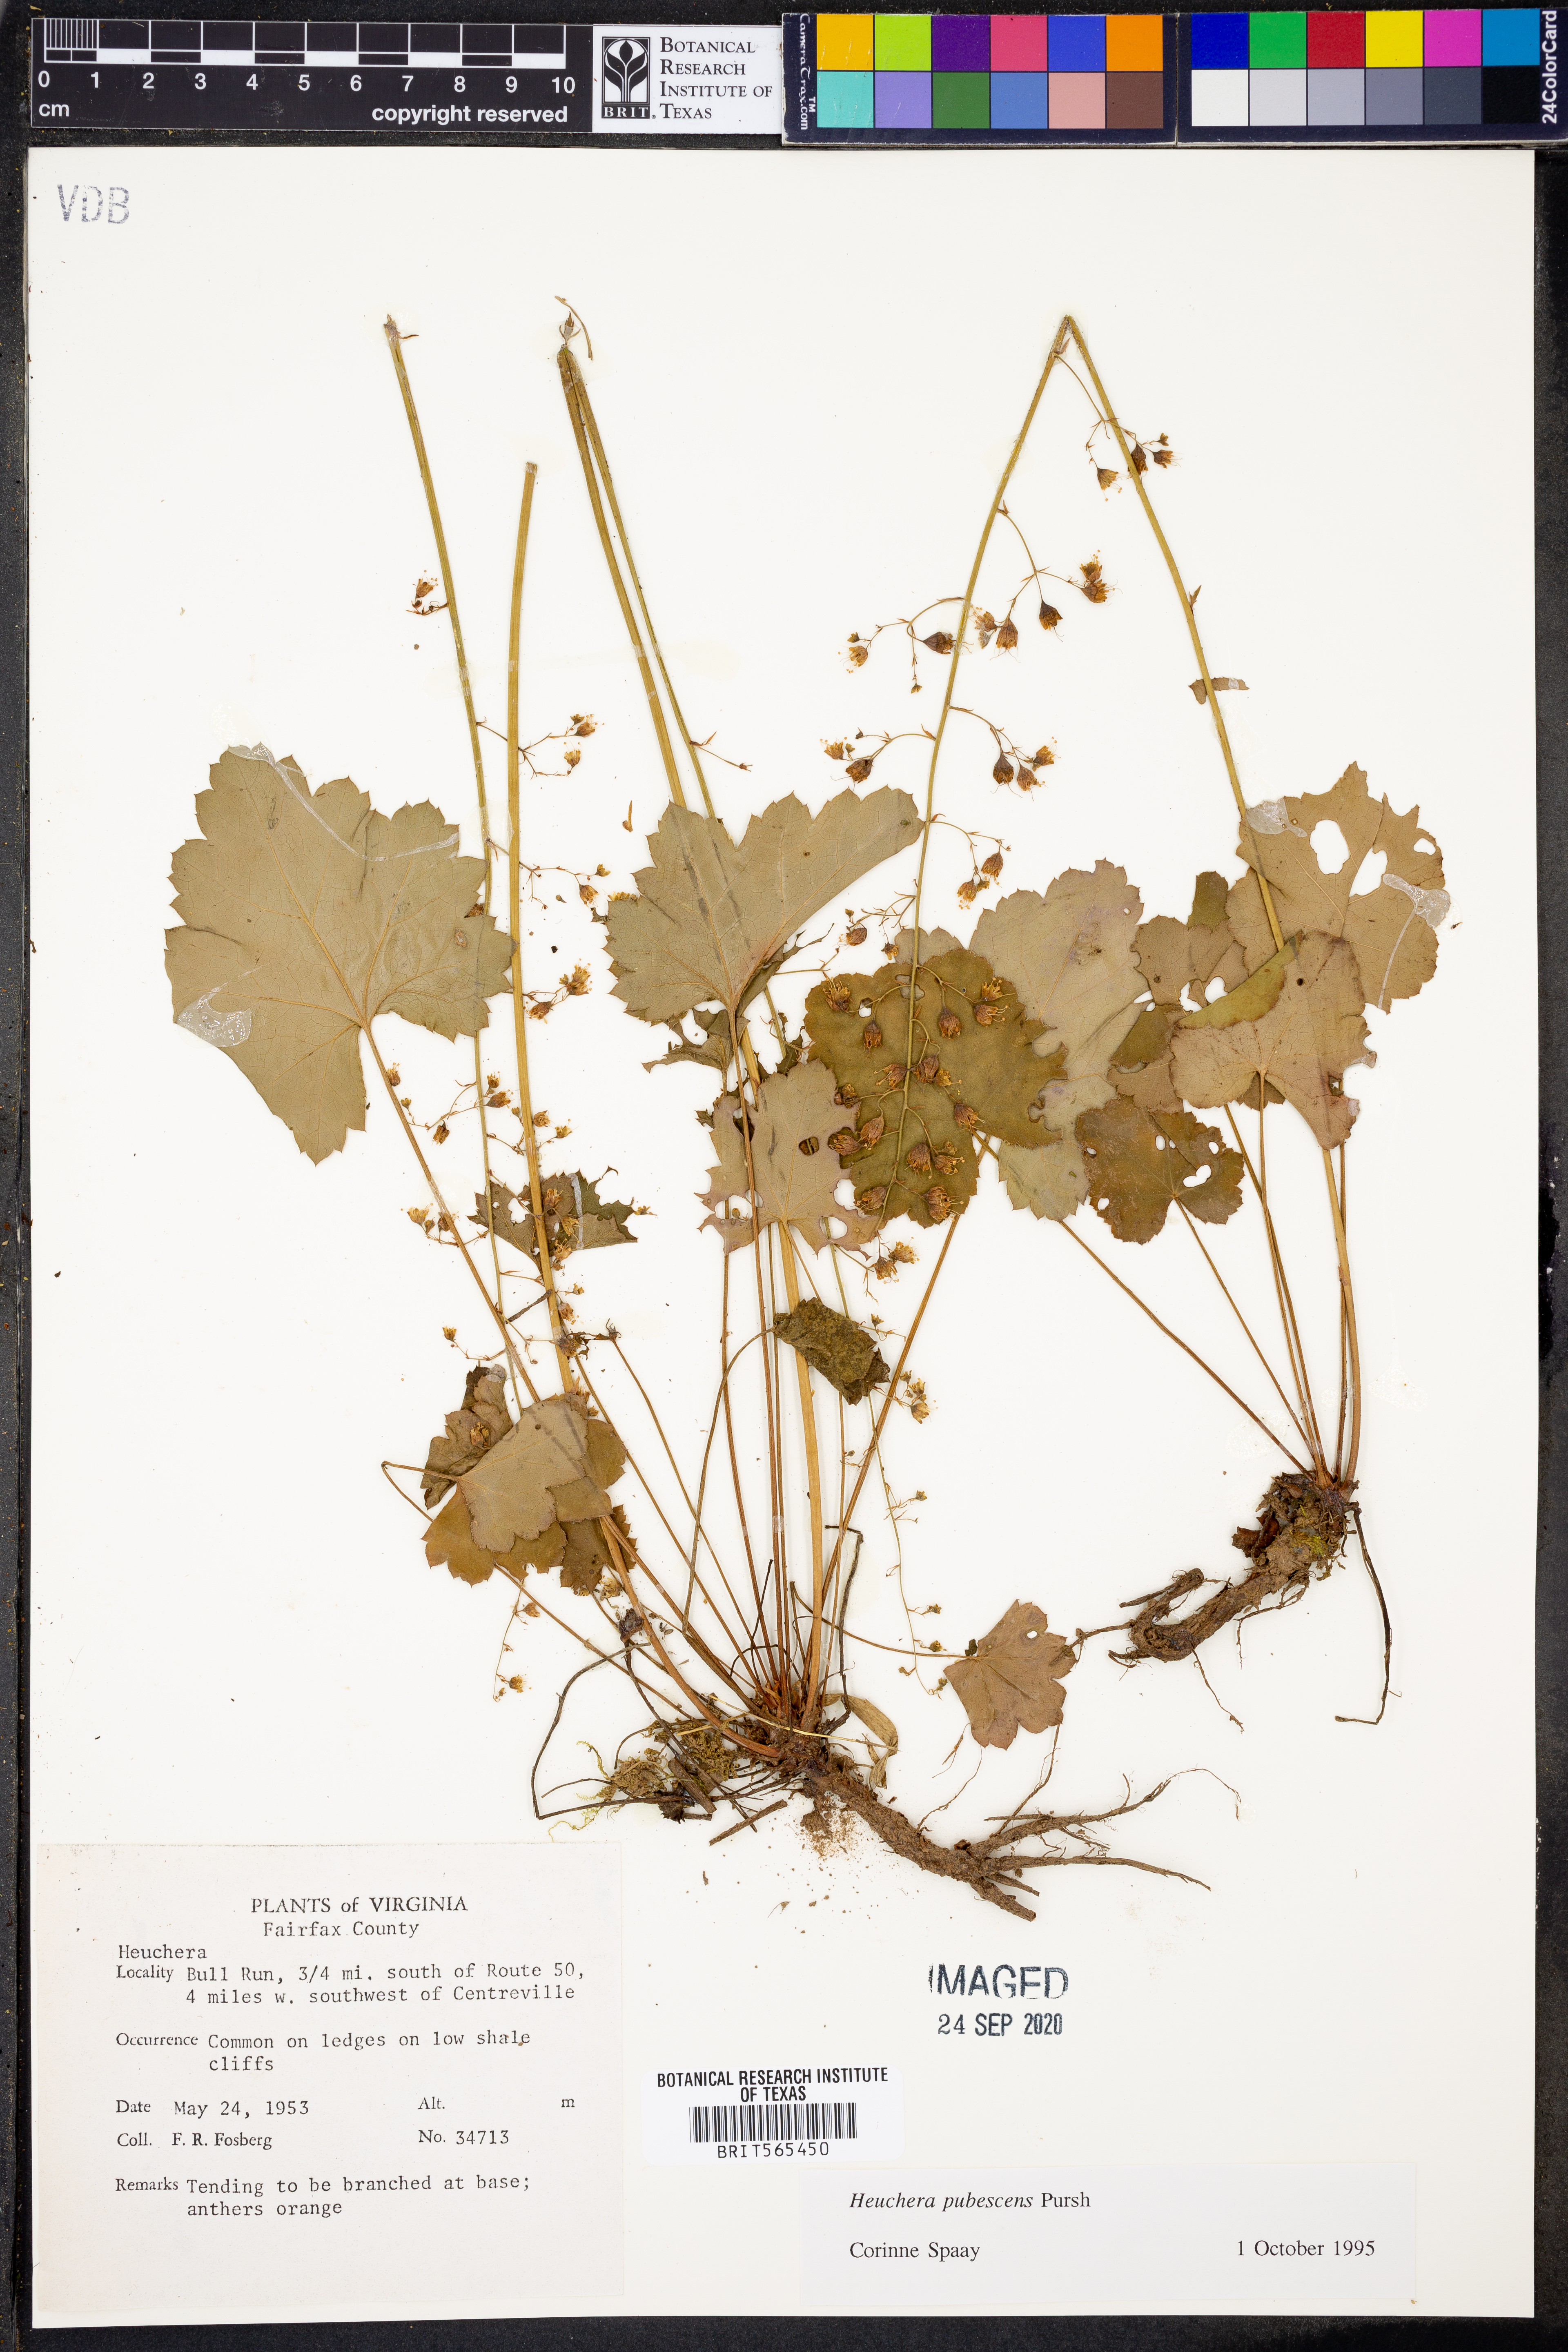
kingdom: Plantae
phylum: Tracheophyta
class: Magnoliopsida
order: Saxifragales
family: Saxifragaceae
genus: Heuchera
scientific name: Heuchera pubescens
